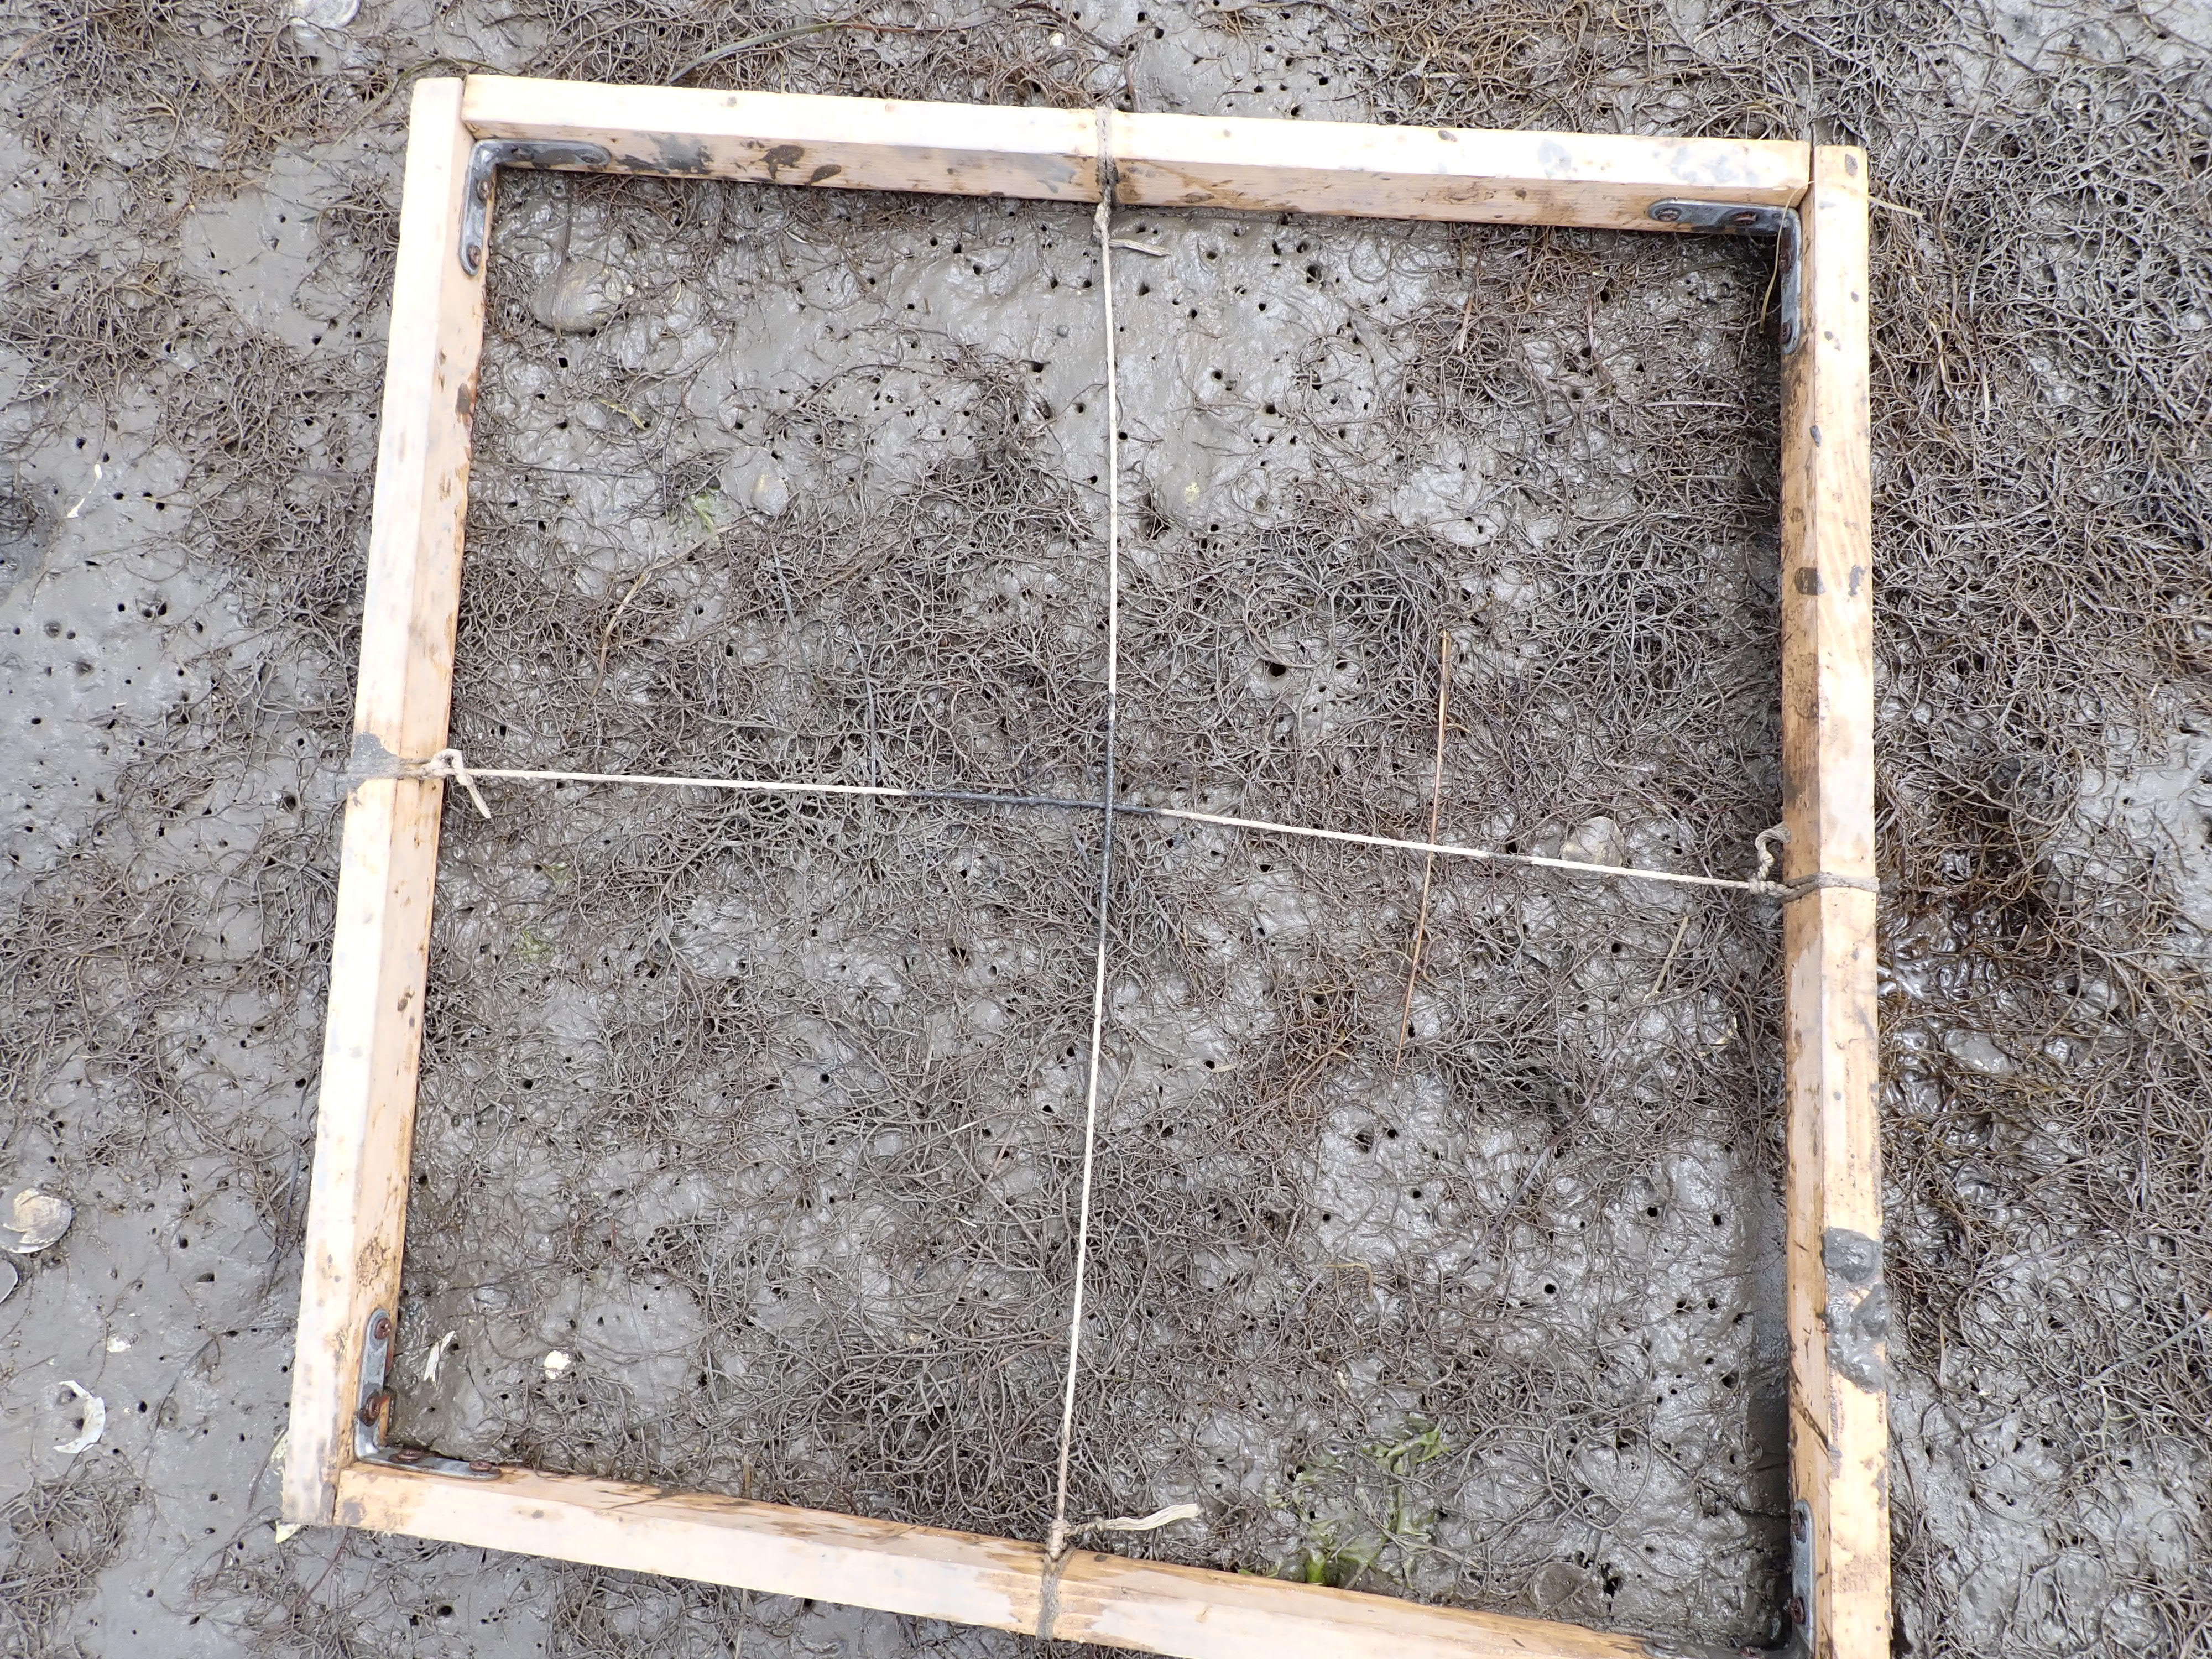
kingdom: Plantae
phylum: Rhodophyta
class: Florideophyceae
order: Gracilariales
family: Gracilariaceae
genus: Gracilaria
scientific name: Gracilaria vermiculophylla
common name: Algae
